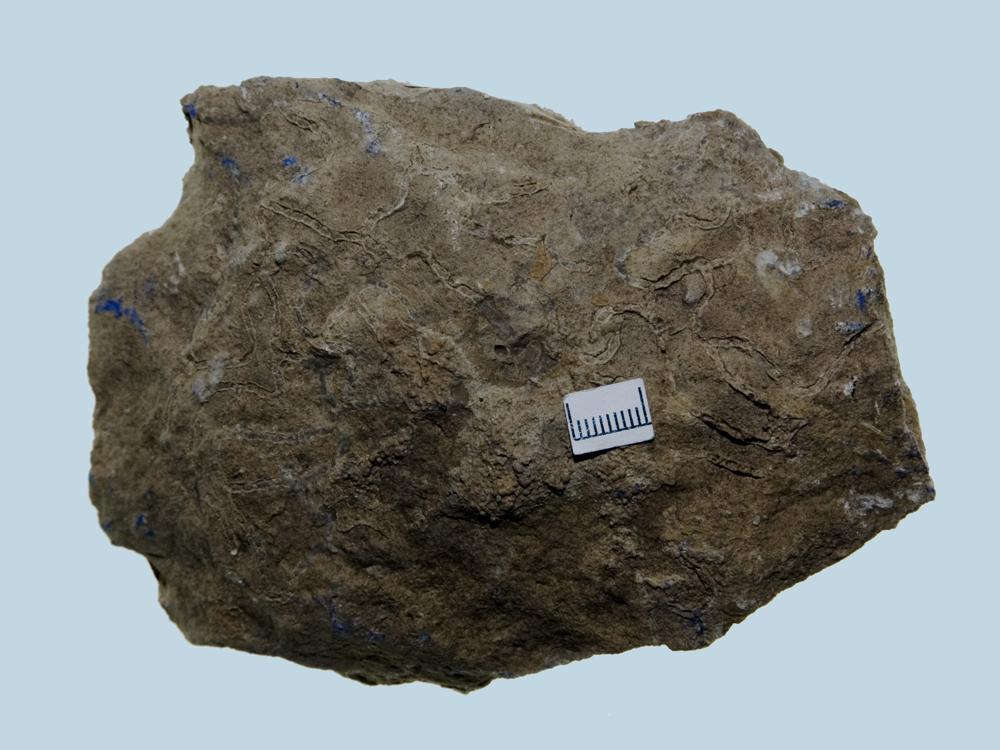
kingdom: Animalia
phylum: Cnidaria
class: Anthozoa
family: Halysitidae
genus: Eocatenipora
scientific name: Eocatenipora Catenipora parallela
